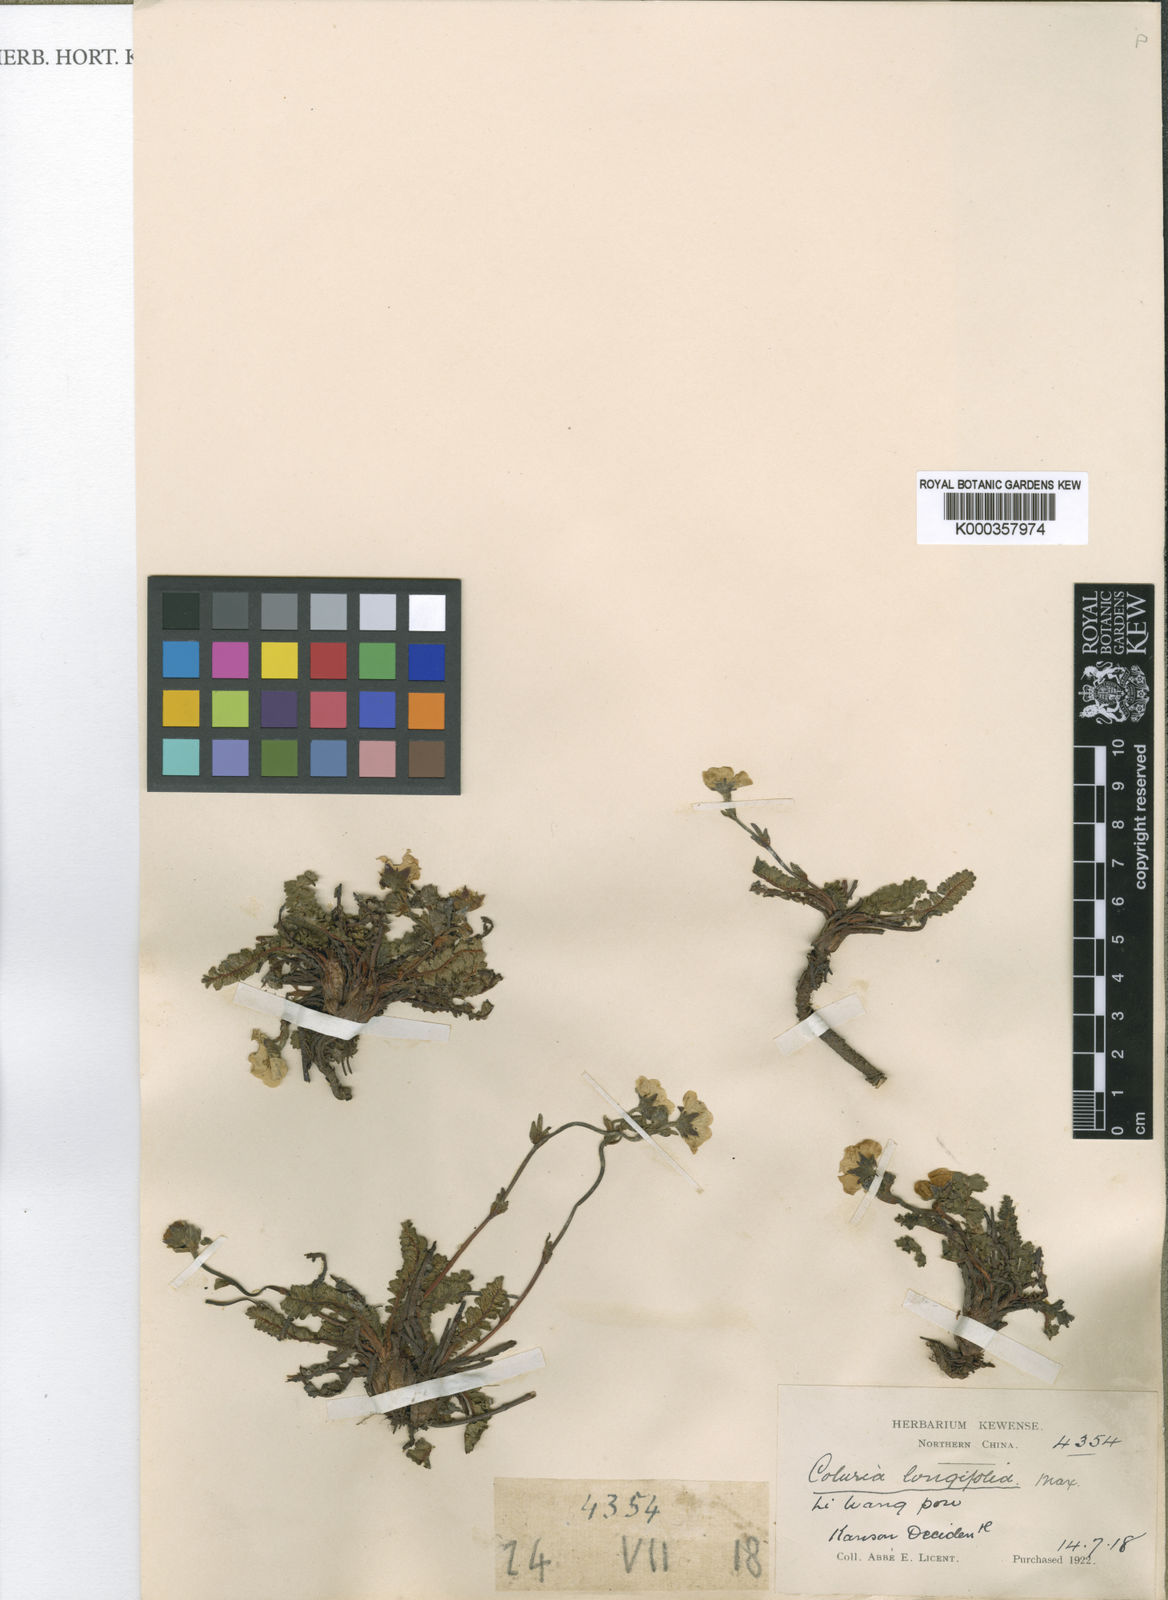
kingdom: Plantae
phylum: Tracheophyta
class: Magnoliopsida
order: Rosales
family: Rosaceae
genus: Geum
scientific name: Geum longifolium
